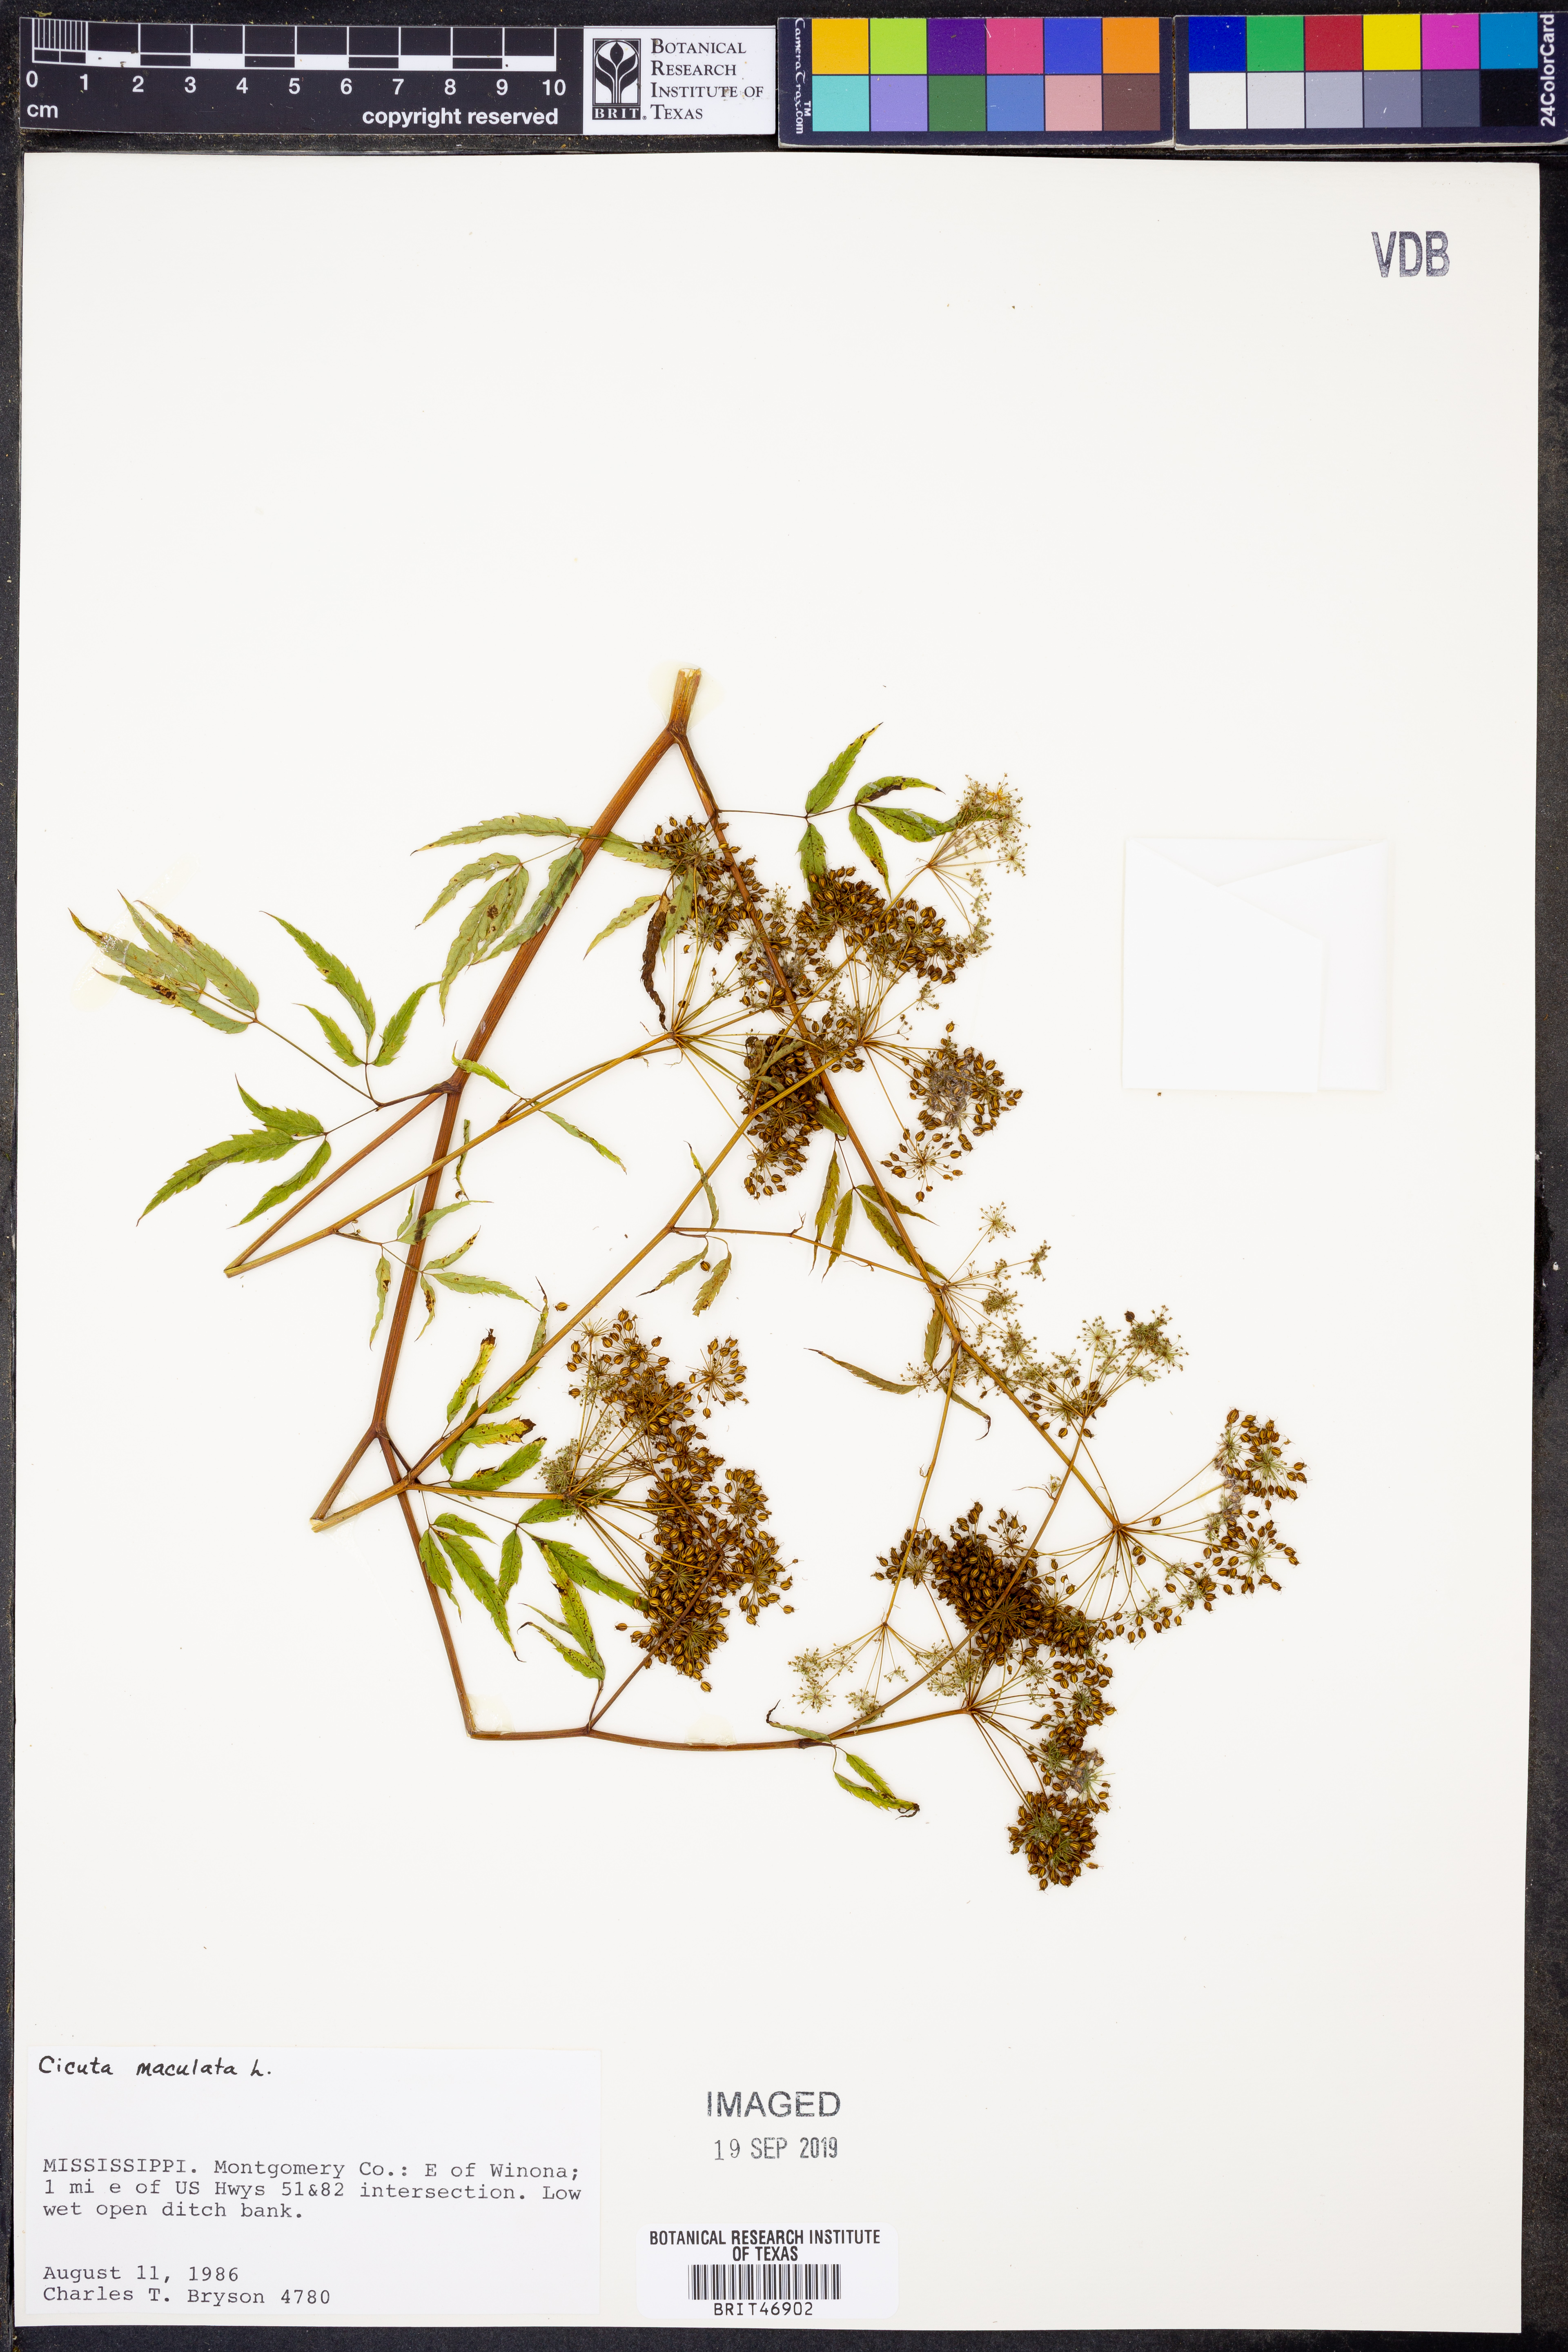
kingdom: Plantae
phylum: Tracheophyta
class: Magnoliopsida
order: Apiales
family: Apiaceae
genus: Cicuta
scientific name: Cicuta maculata
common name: Spotted cowbane
